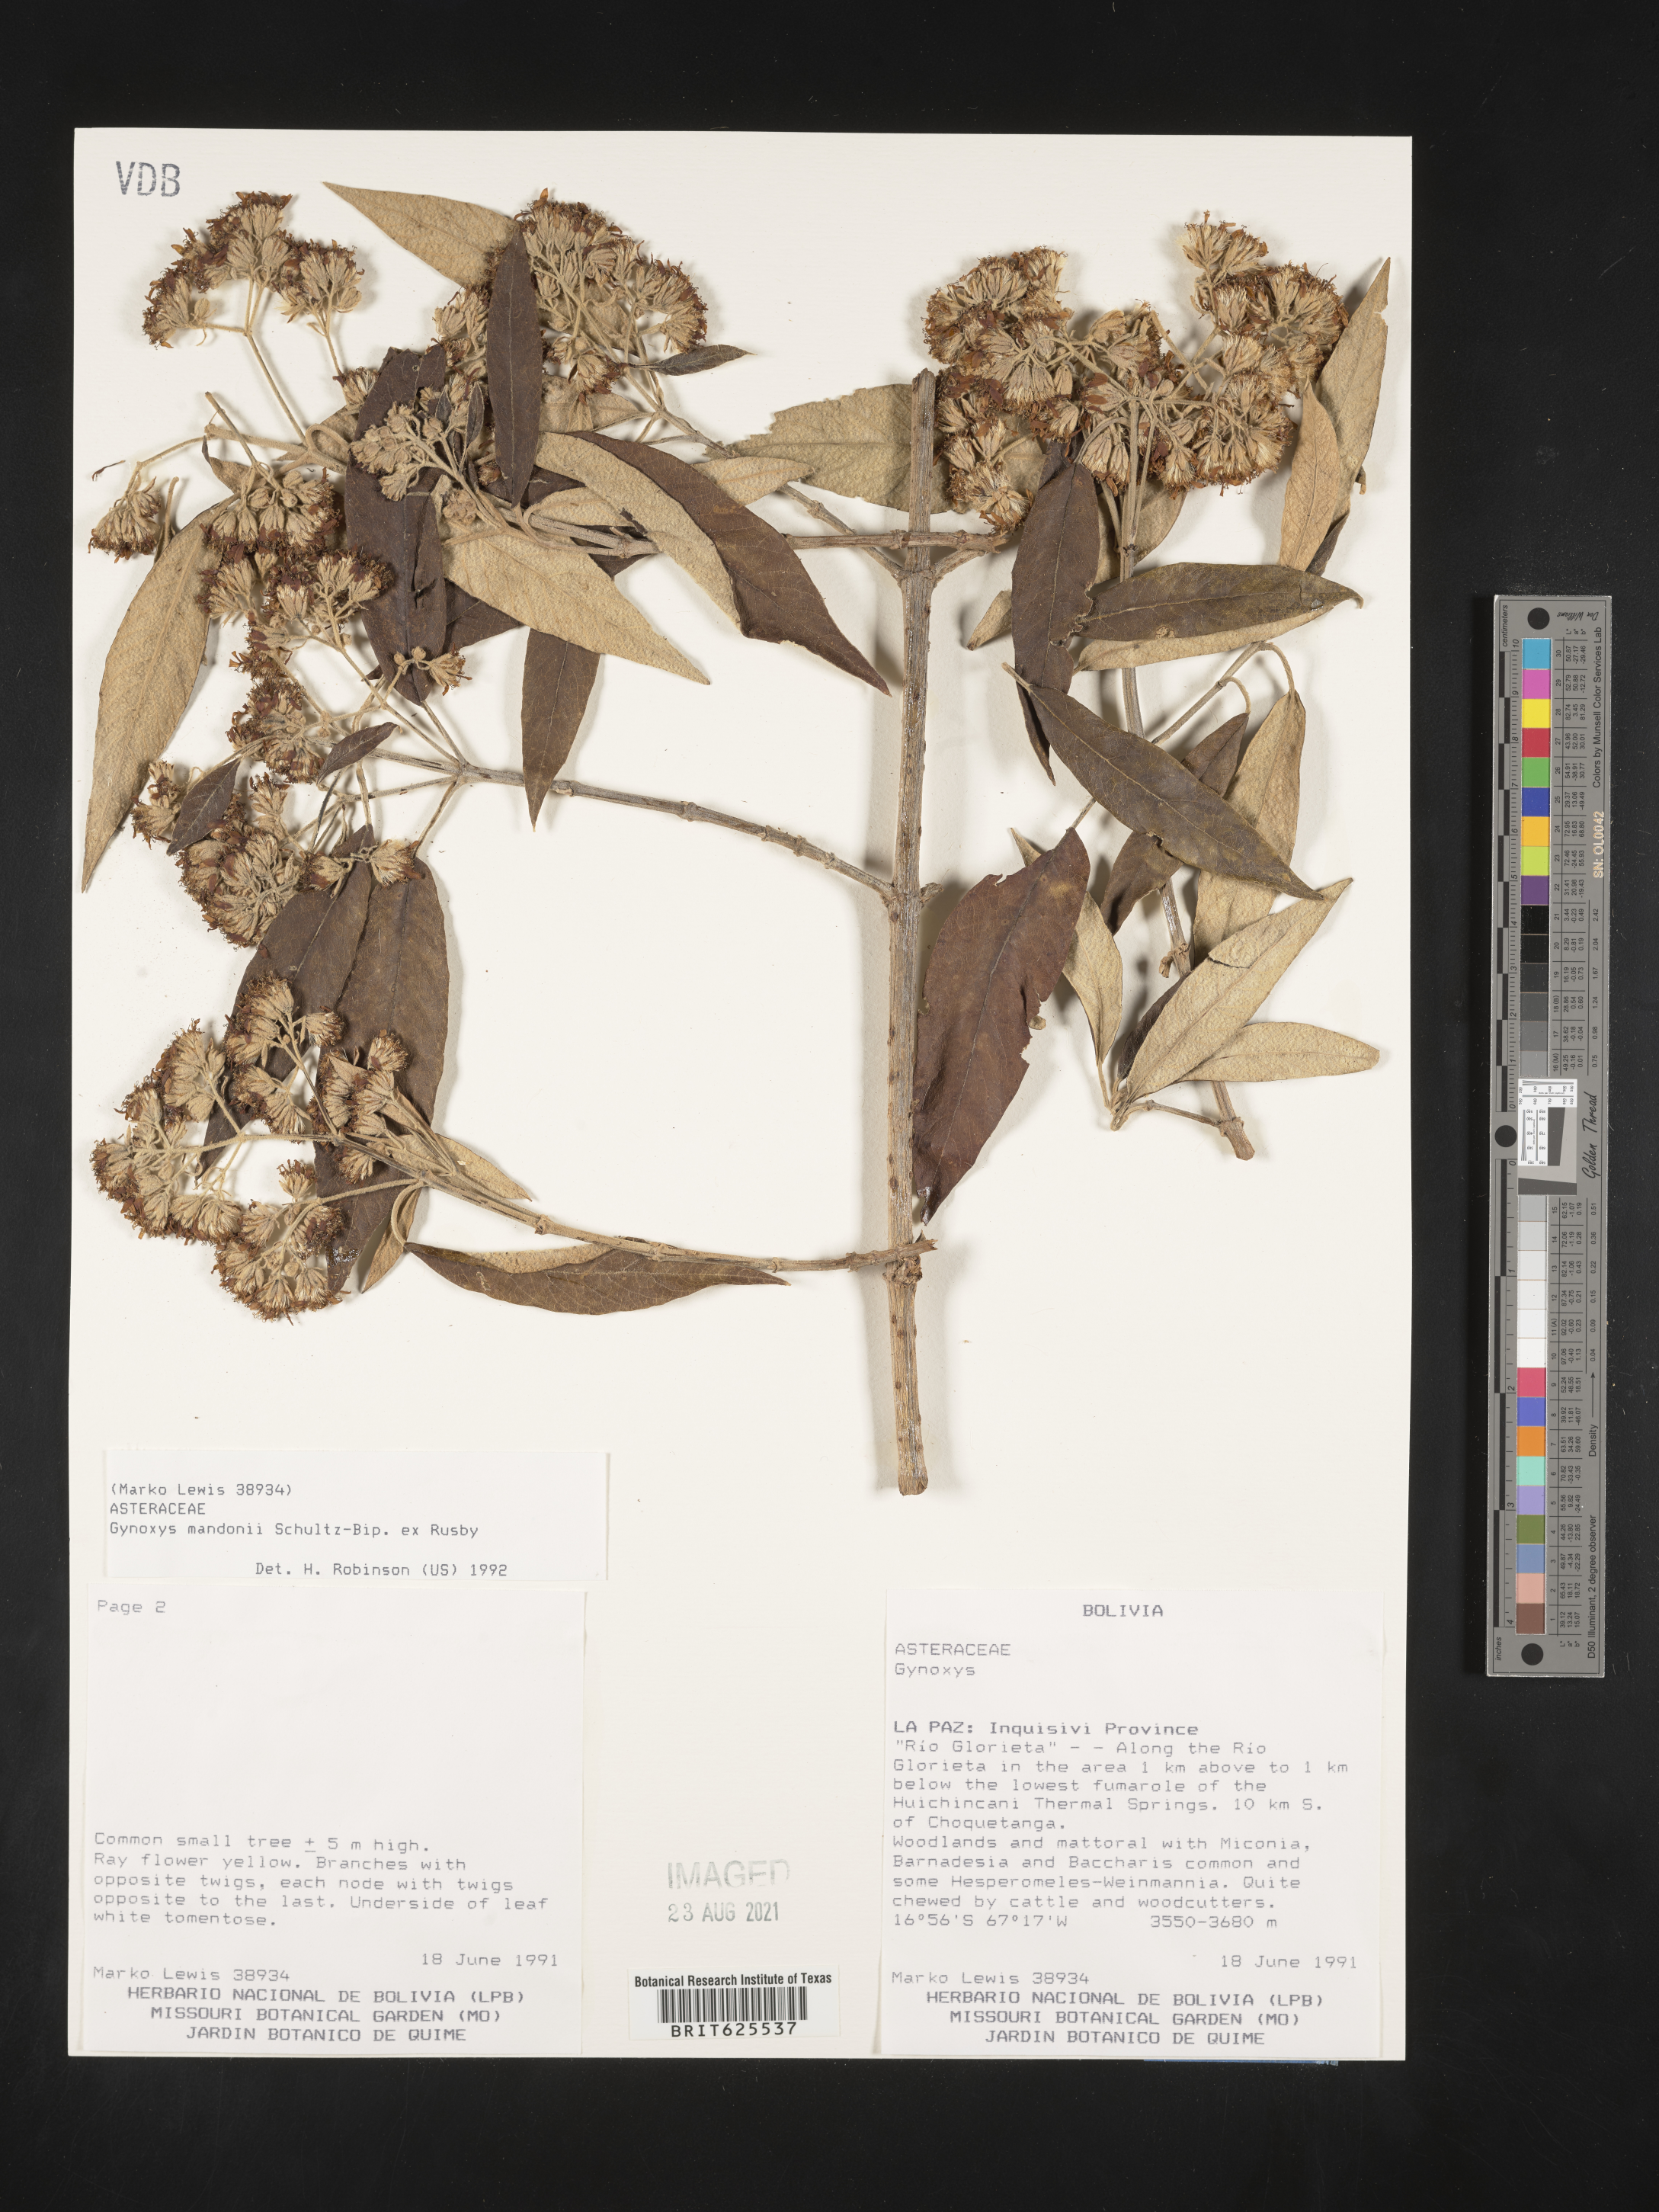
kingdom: Plantae
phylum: Tracheophyta
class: Magnoliopsida
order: Asterales
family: Asteraceae
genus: Gynoxys
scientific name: Gynoxys mandonii
